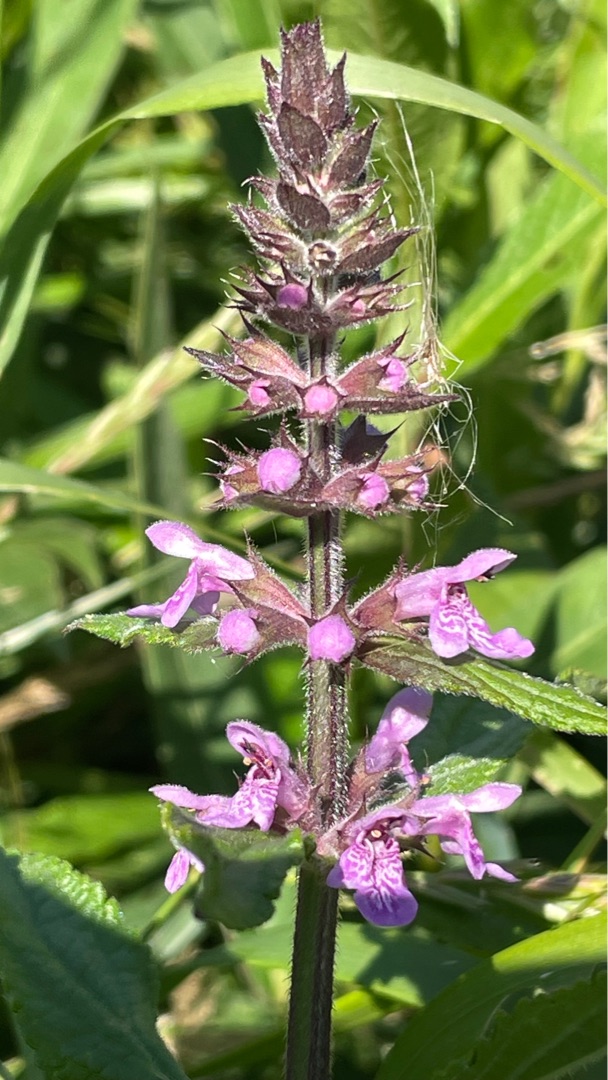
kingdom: Plantae
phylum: Tracheophyta
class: Magnoliopsida
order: Lamiales
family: Lamiaceae
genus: Stachys
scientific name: Stachys palustris
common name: Kær-galtetand
